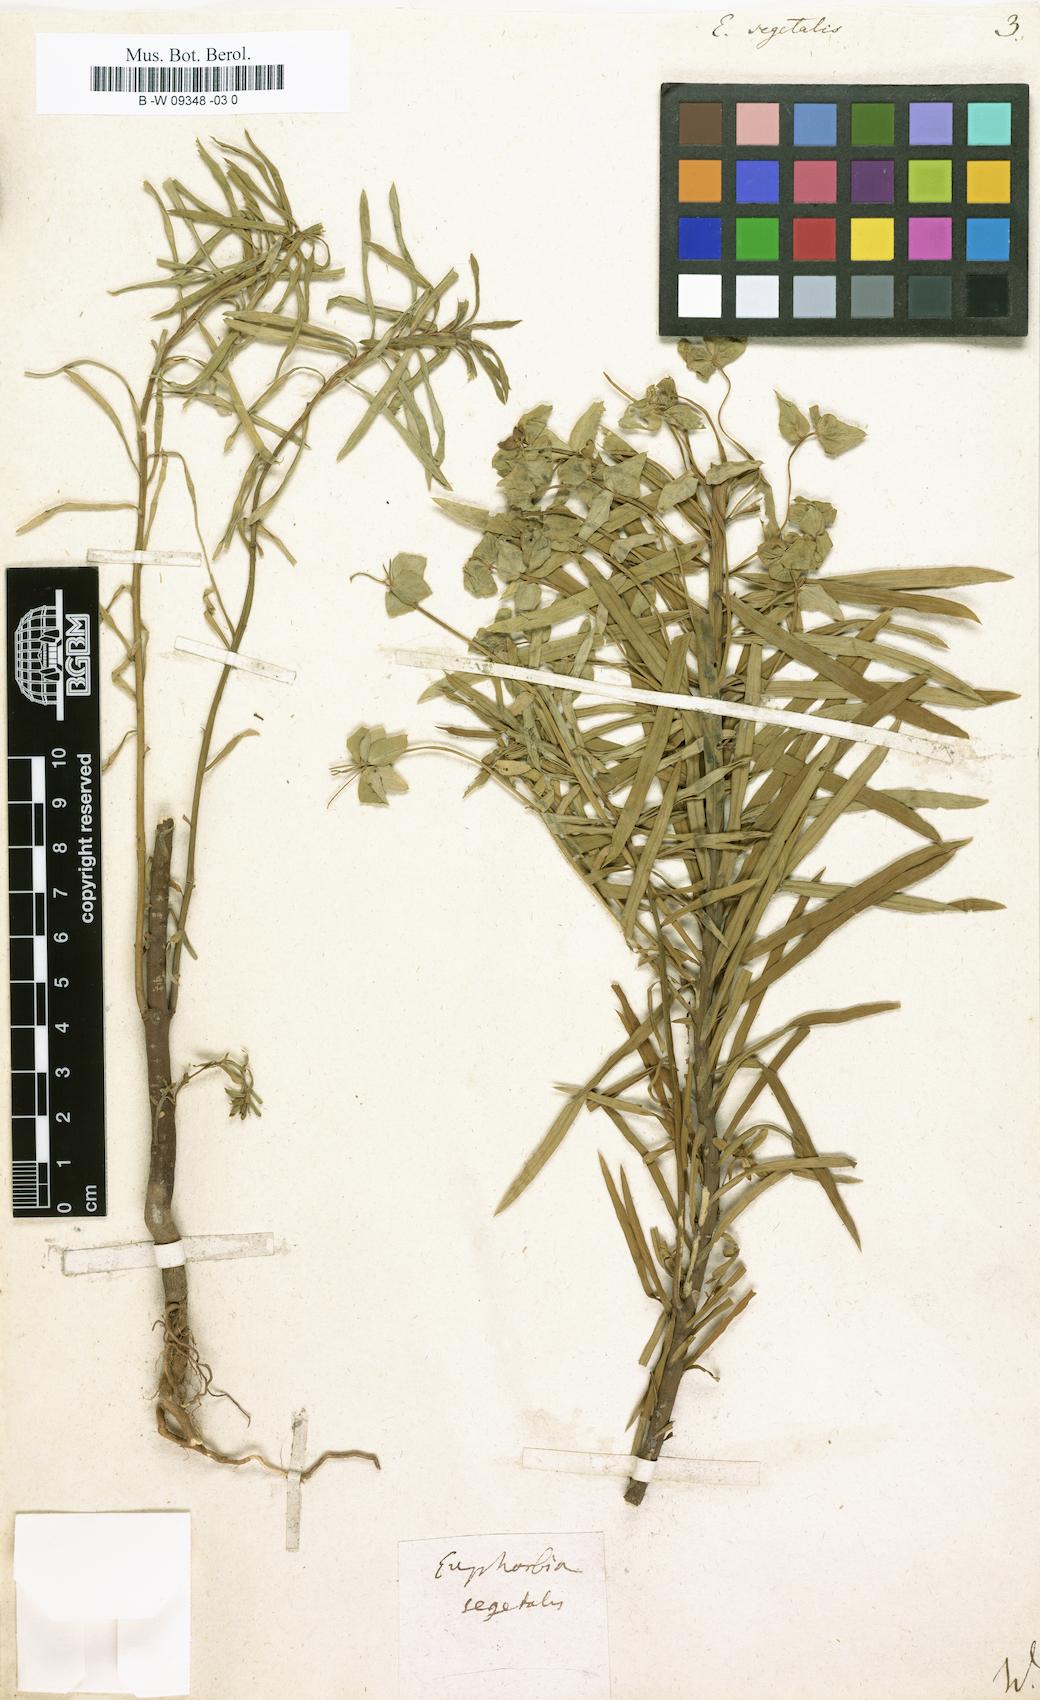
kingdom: Plantae
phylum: Tracheophyta
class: Magnoliopsida
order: Malpighiales
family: Euphorbiaceae
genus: Euphorbia
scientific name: Euphorbia segetalis
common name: Corn spurge
